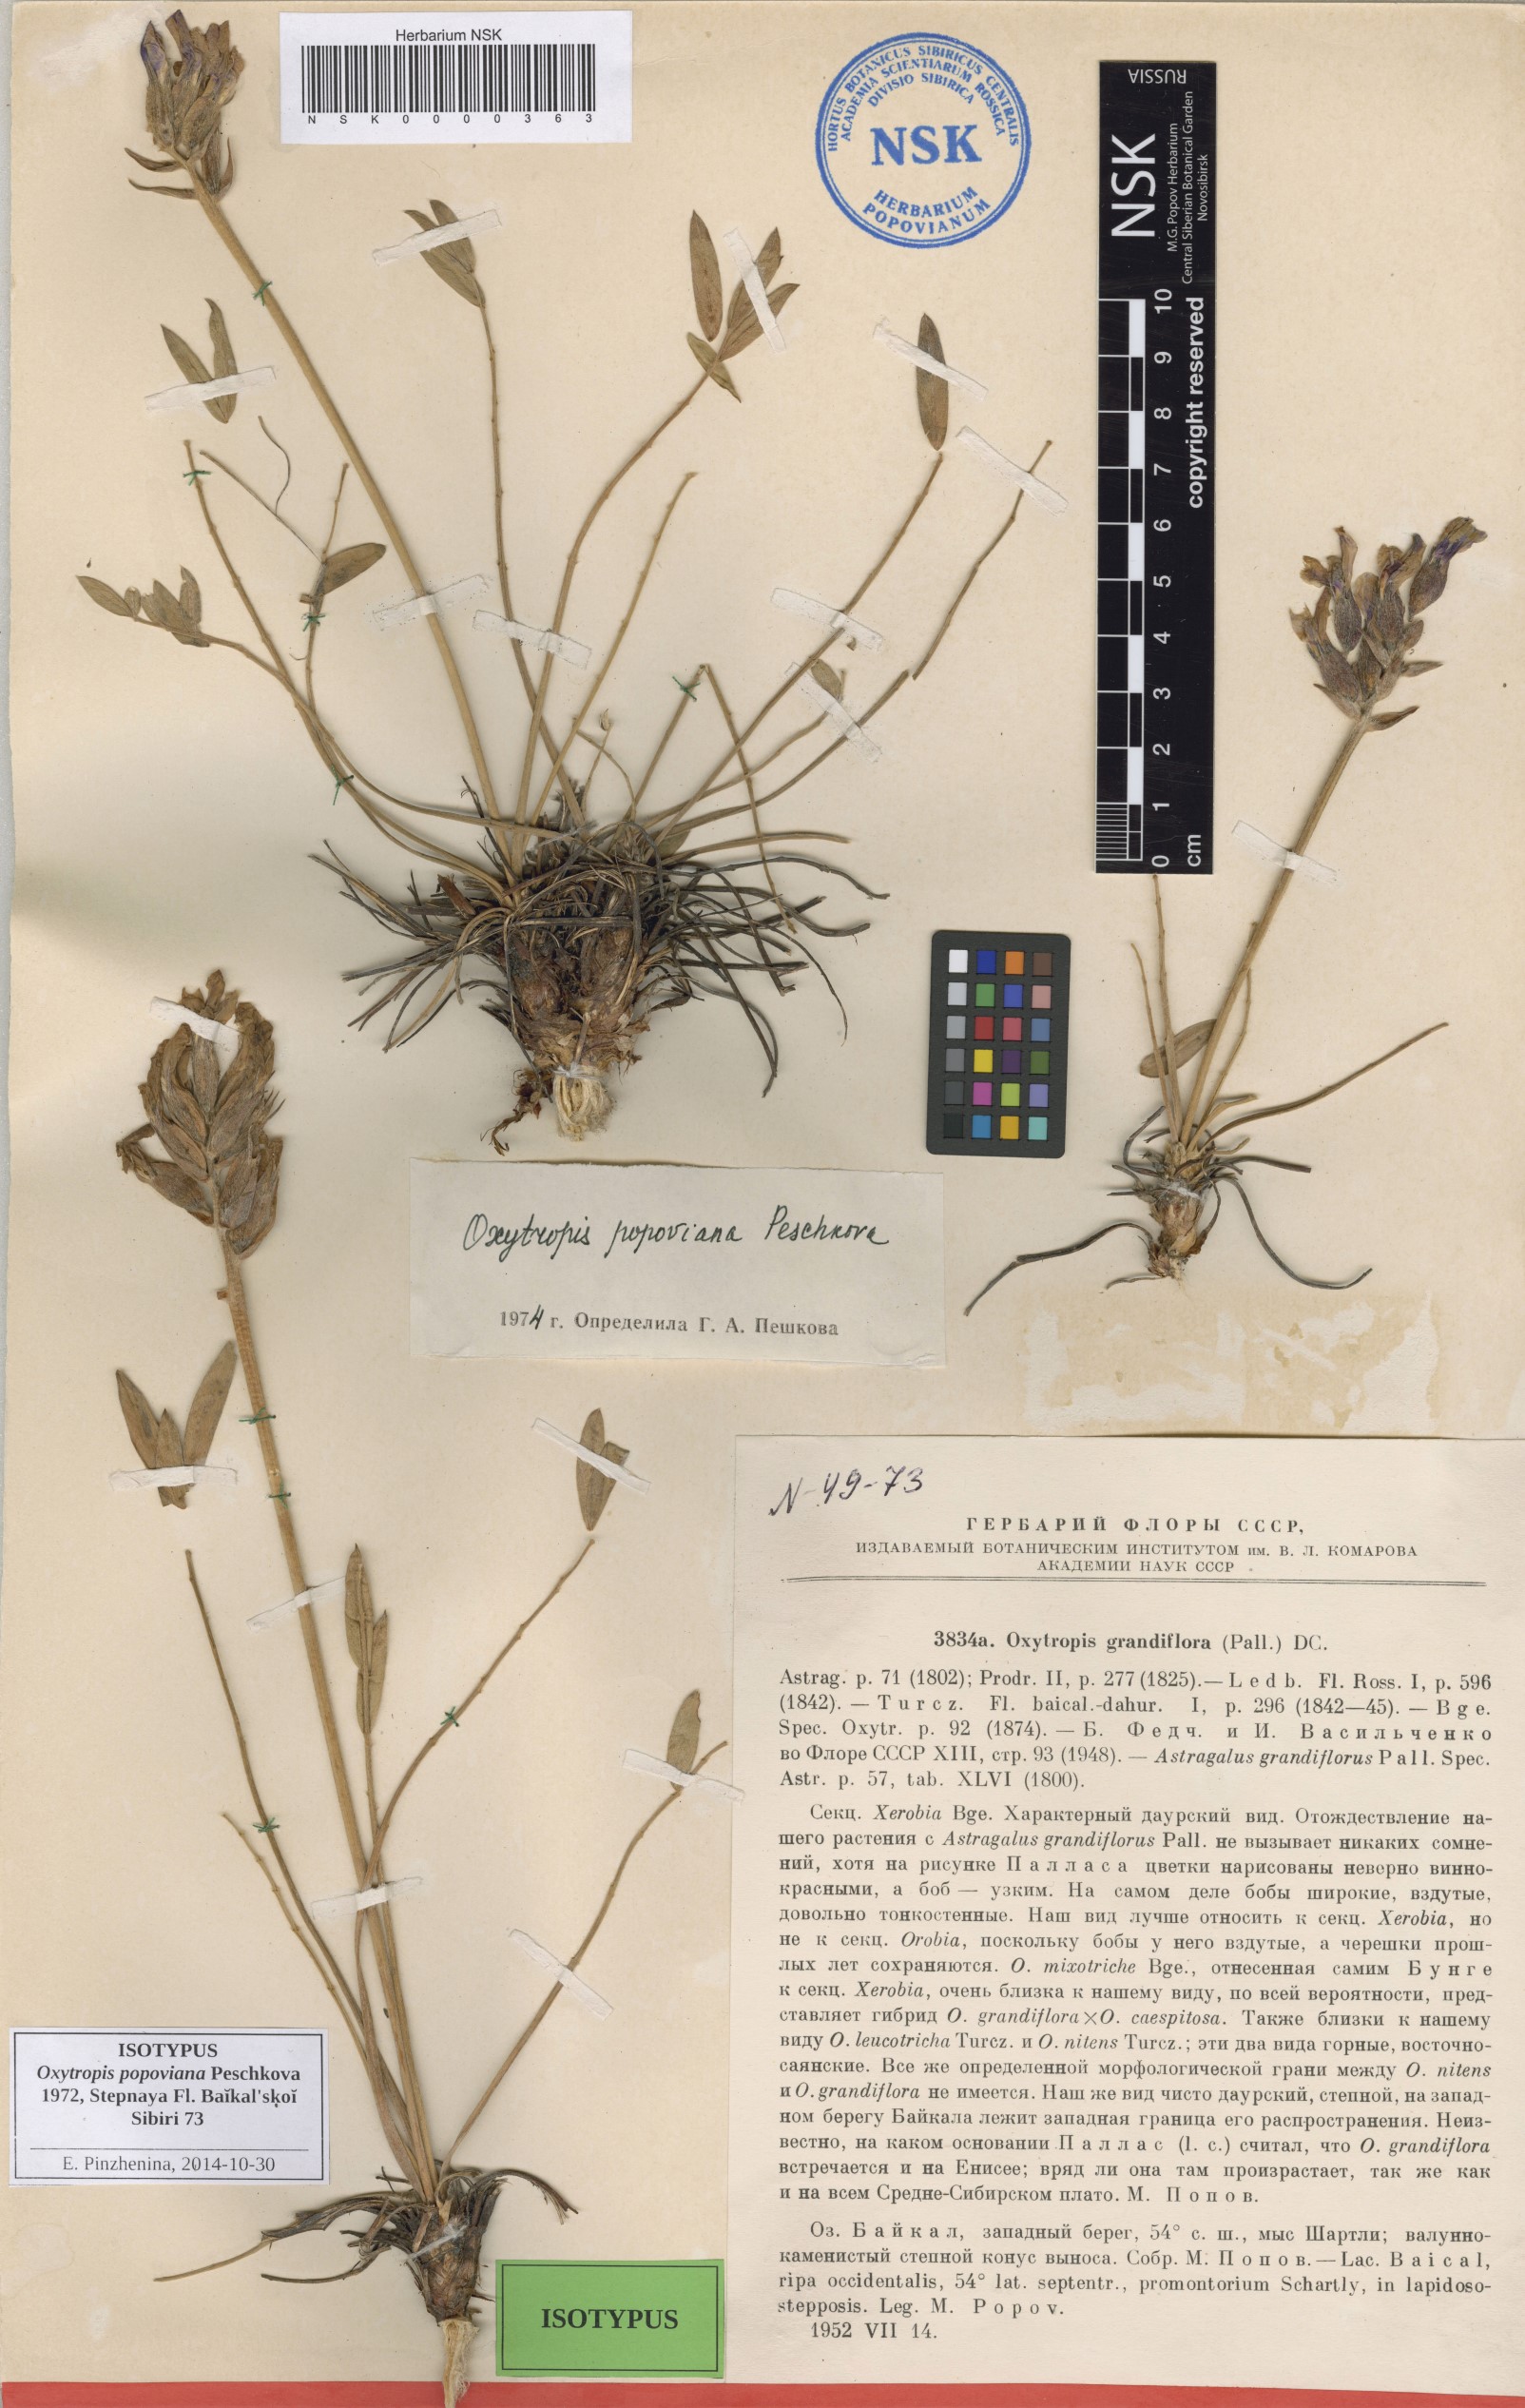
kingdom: Plantae
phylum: Tracheophyta
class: Magnoliopsida
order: Fabales
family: Fabaceae
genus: Oxytropis
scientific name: Oxytropis popoviana
